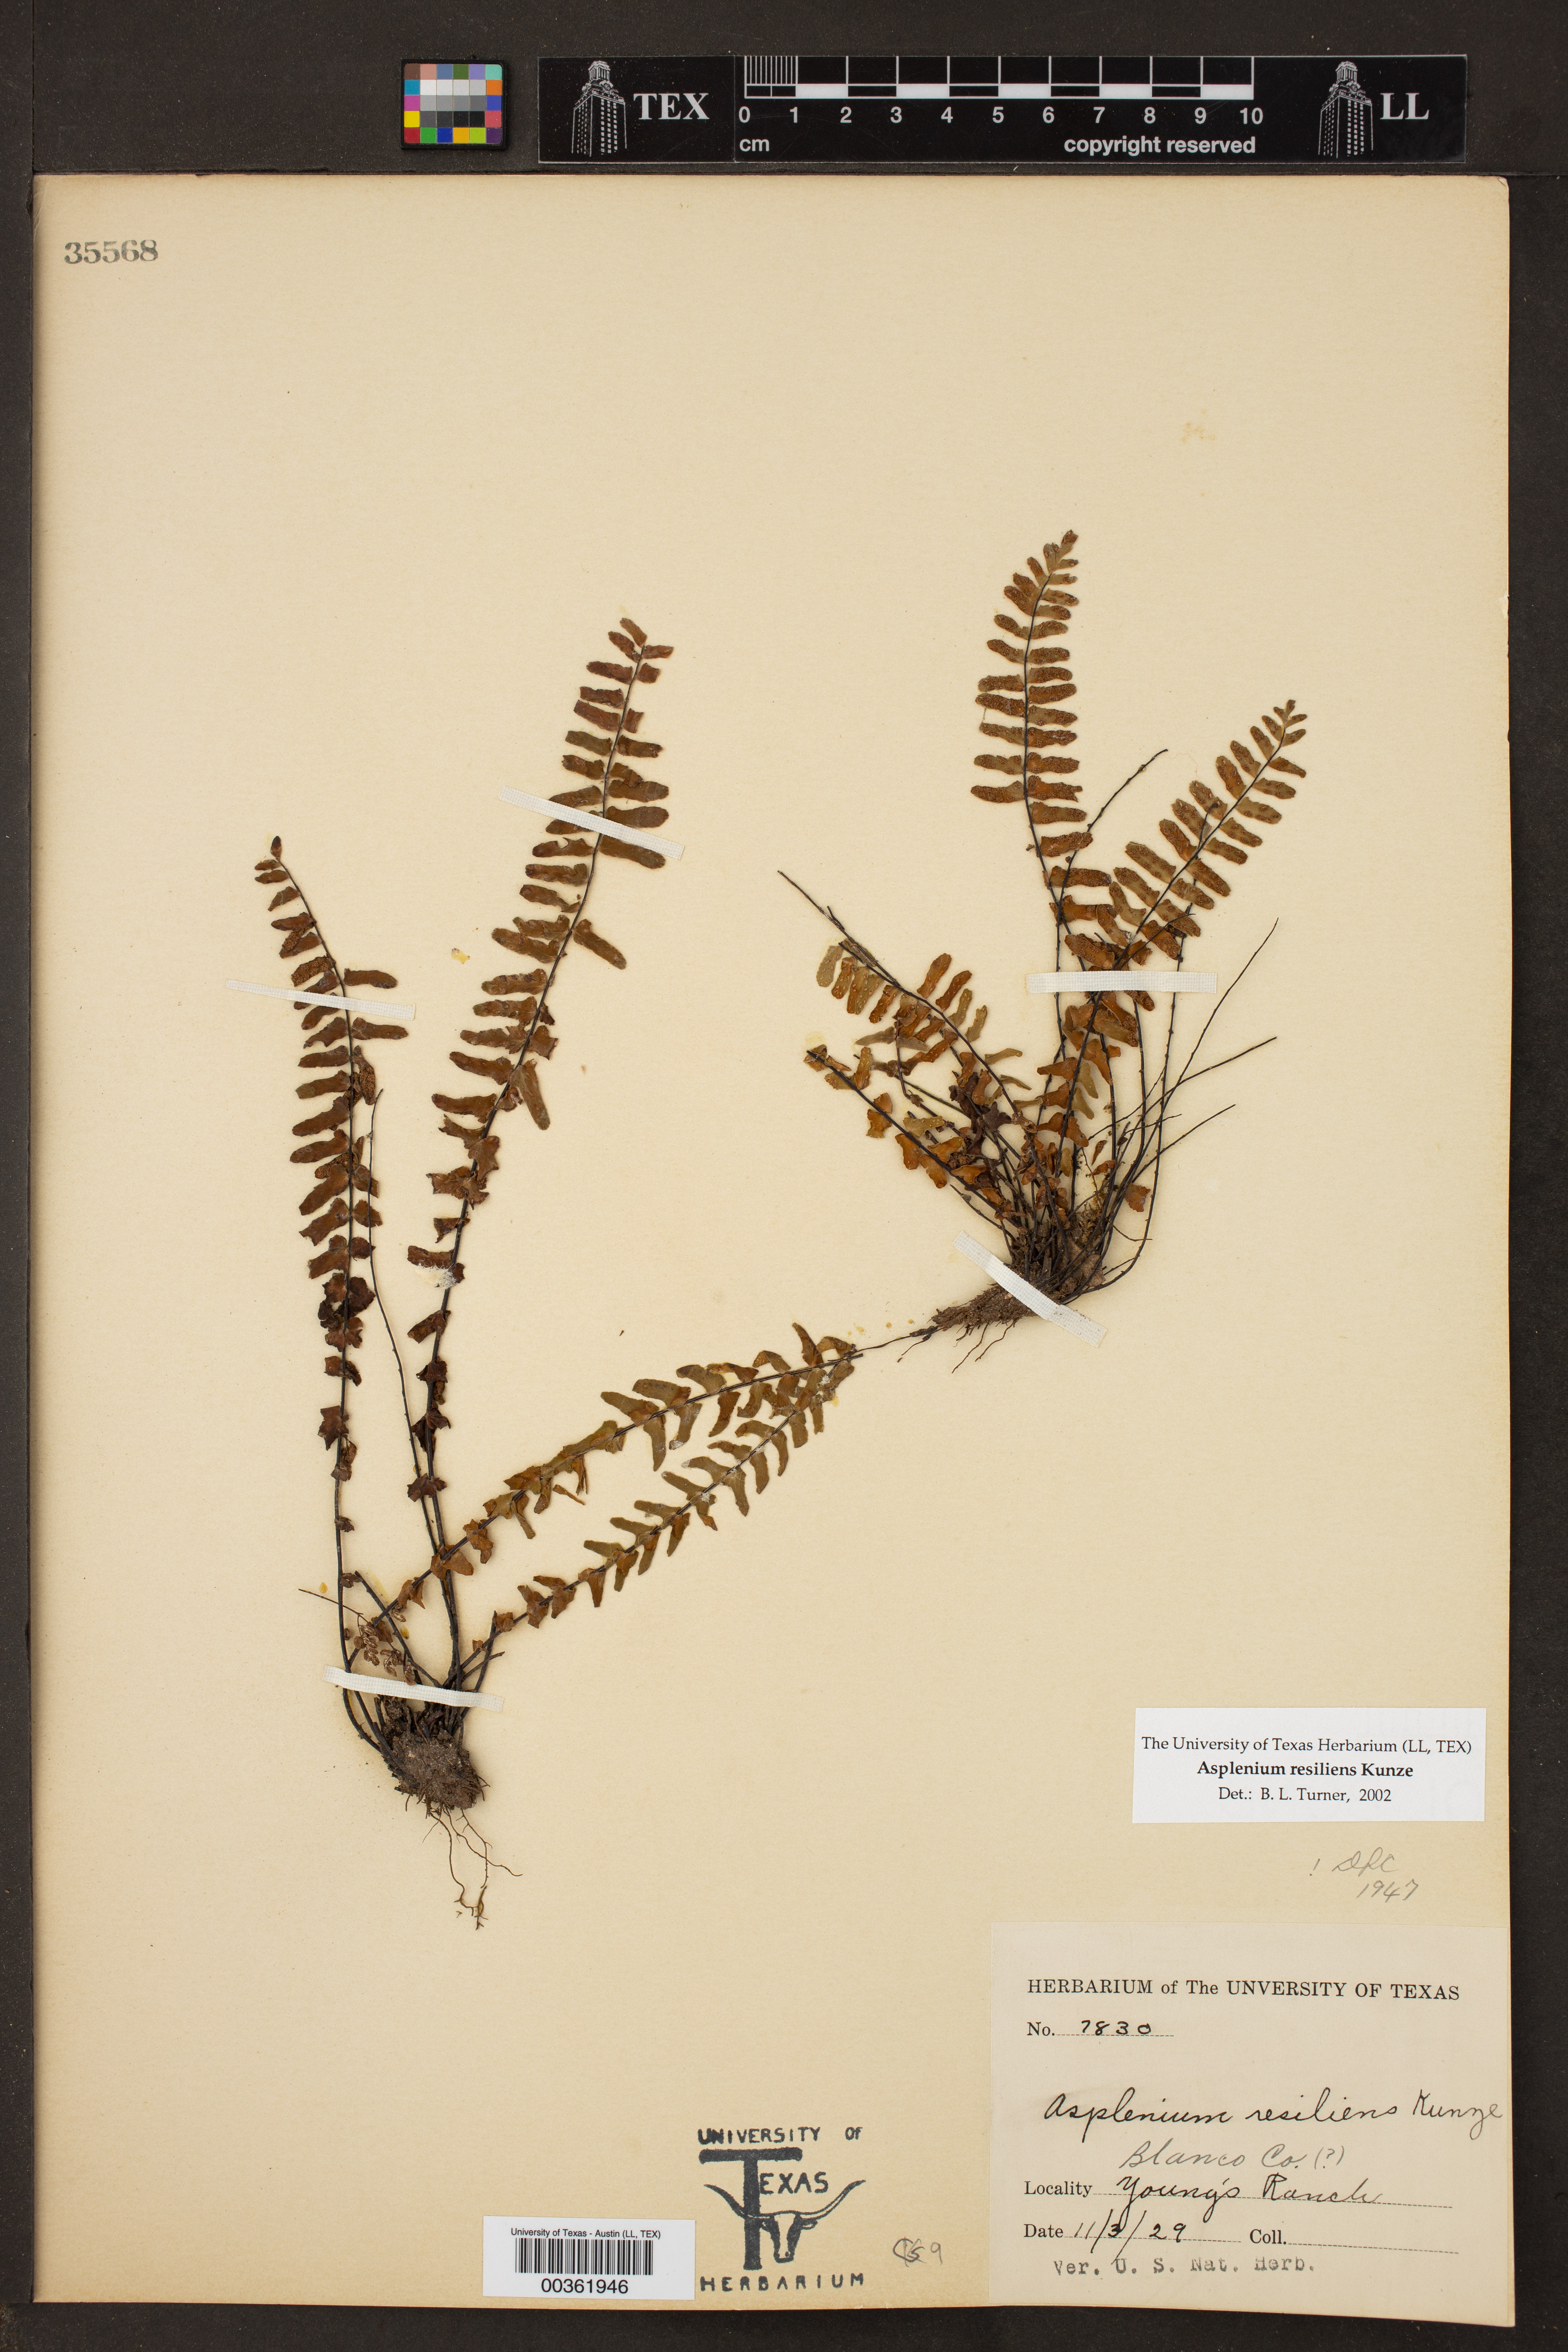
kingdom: Plantae
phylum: Tracheophyta
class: Polypodiopsida
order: Polypodiales
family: Aspleniaceae
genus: Asplenium
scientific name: Asplenium resiliens
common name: Blackstem spleenwort
